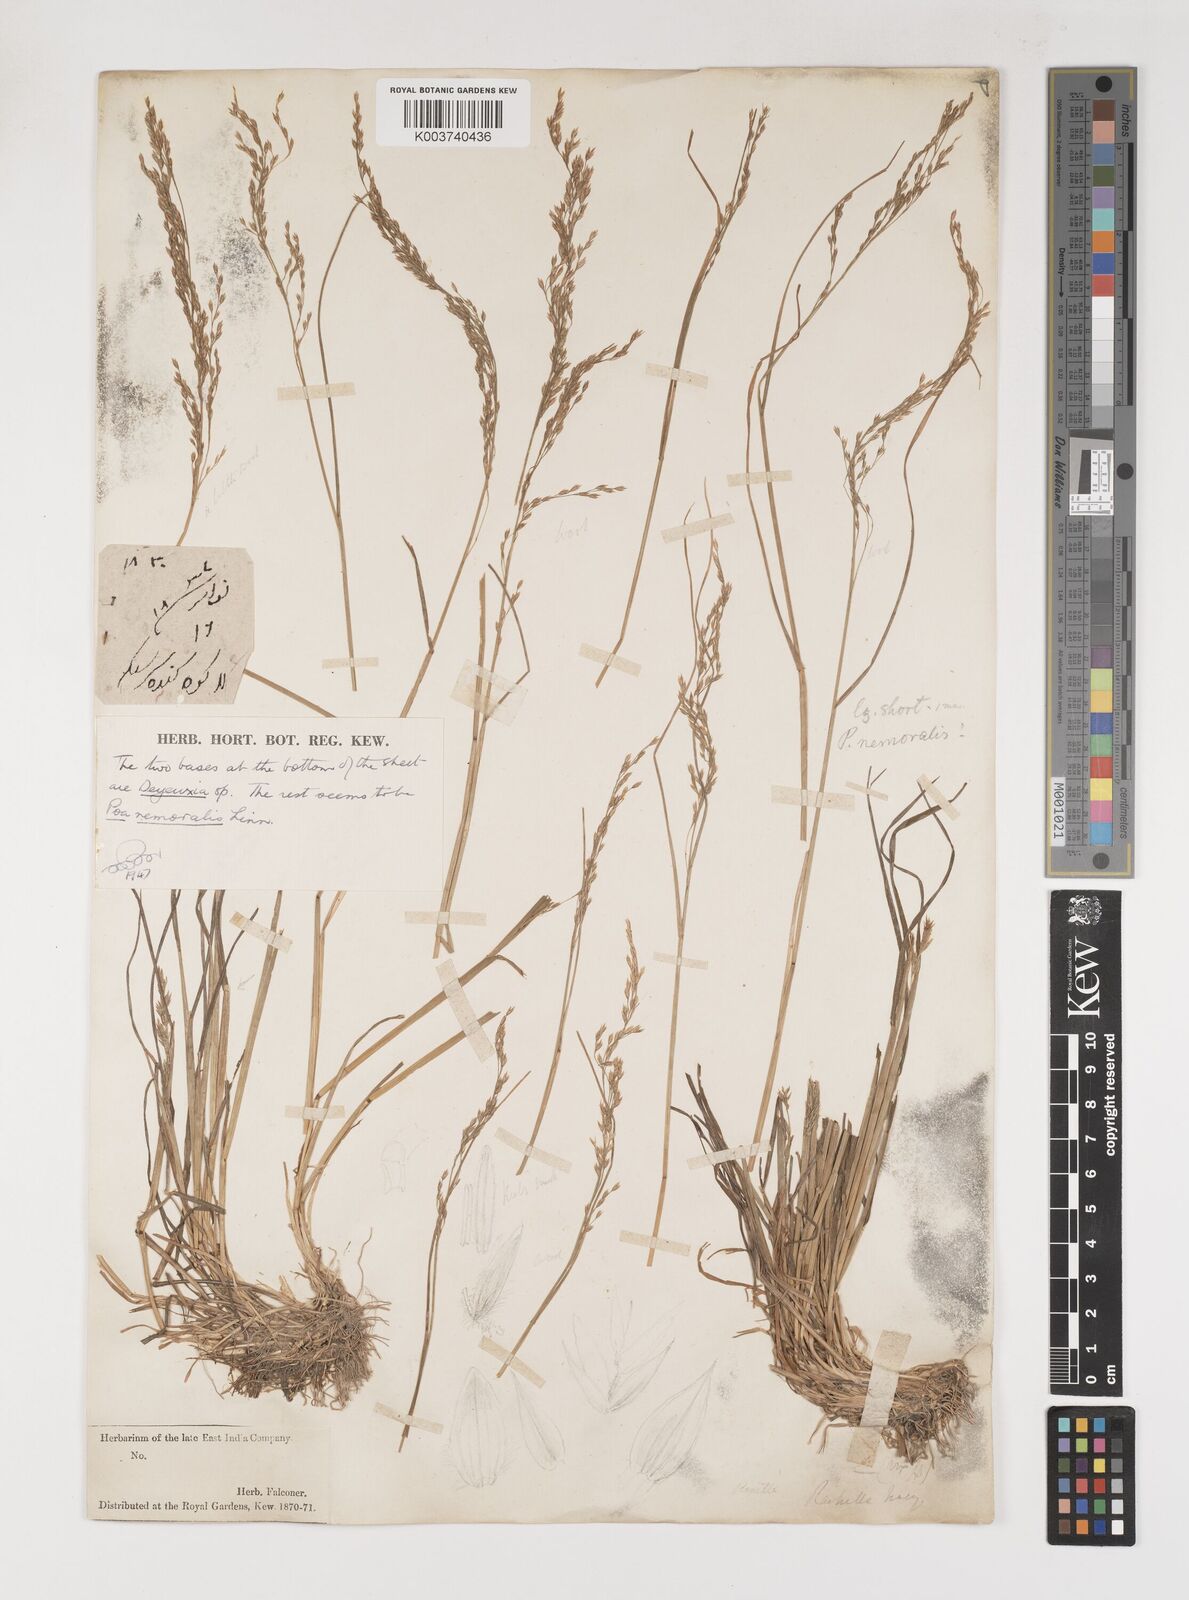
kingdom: Plantae
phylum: Tracheophyta
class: Liliopsida
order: Poales
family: Poaceae
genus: Poa
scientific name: Poa nemoralis
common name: Wood bluegrass
